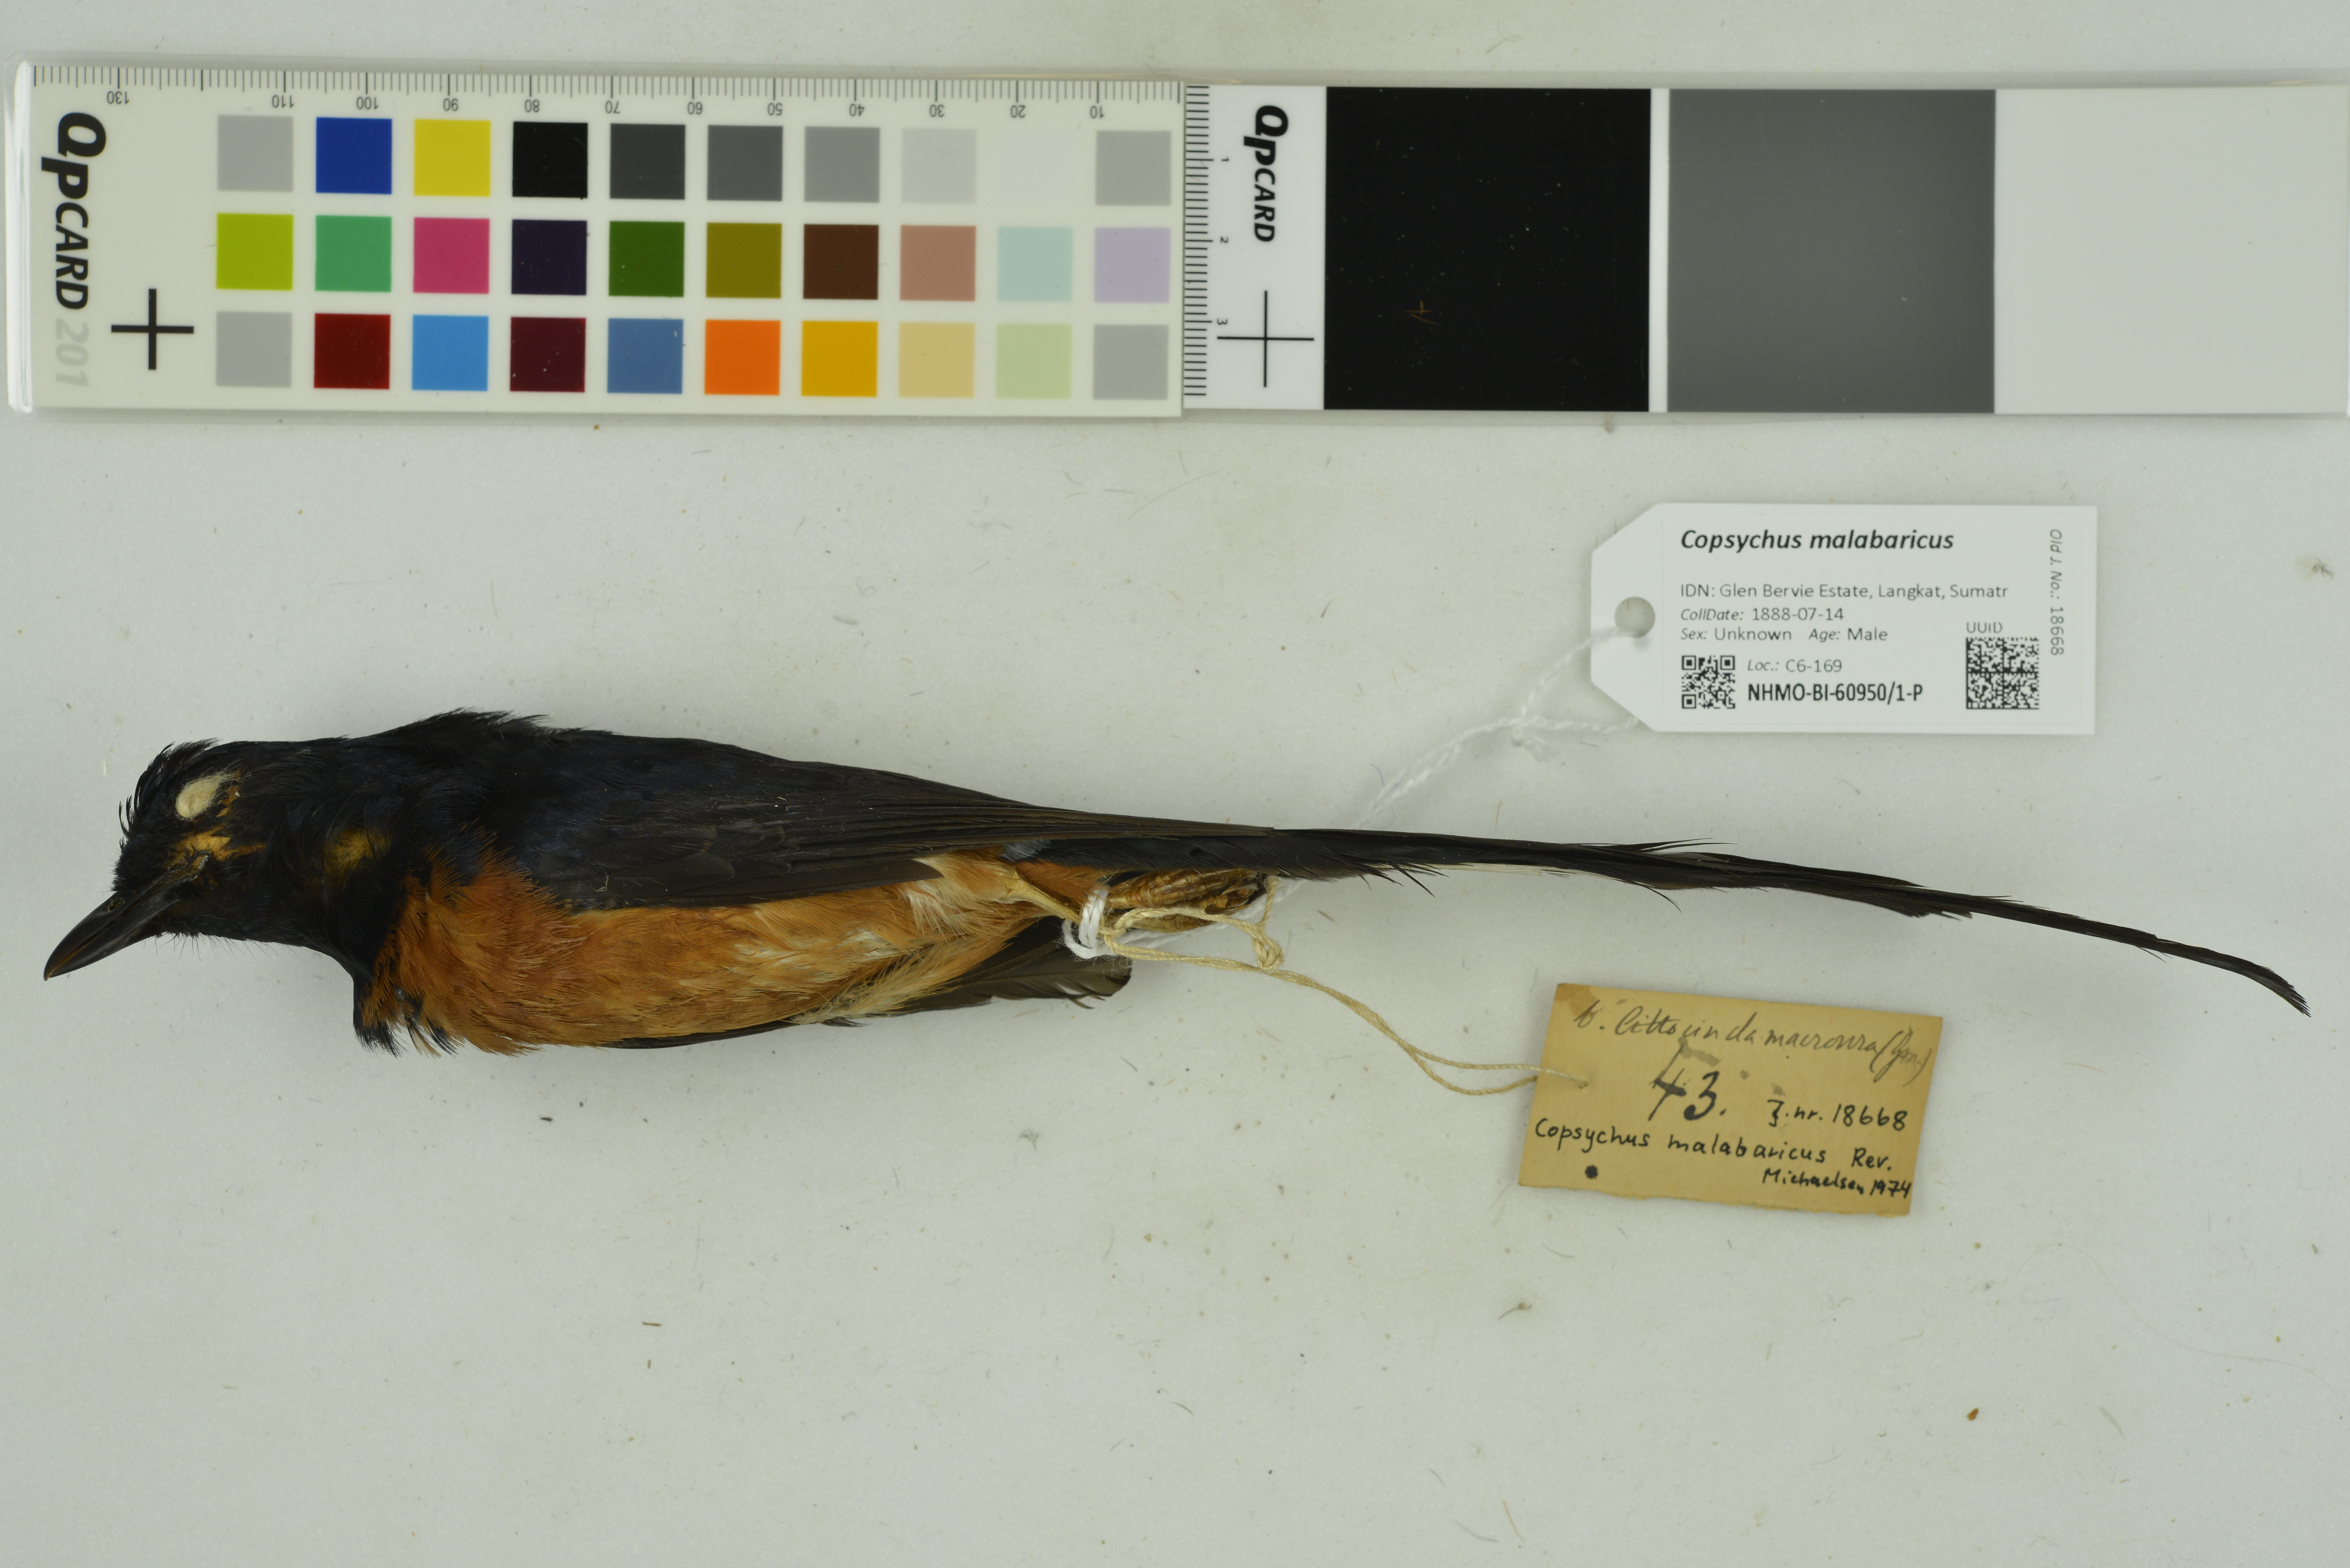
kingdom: Animalia
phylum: Chordata
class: Aves
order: Passeriformes
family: Muscicapidae
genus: Copsychus
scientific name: Copsychus malabaricus
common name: White-rumped shama
